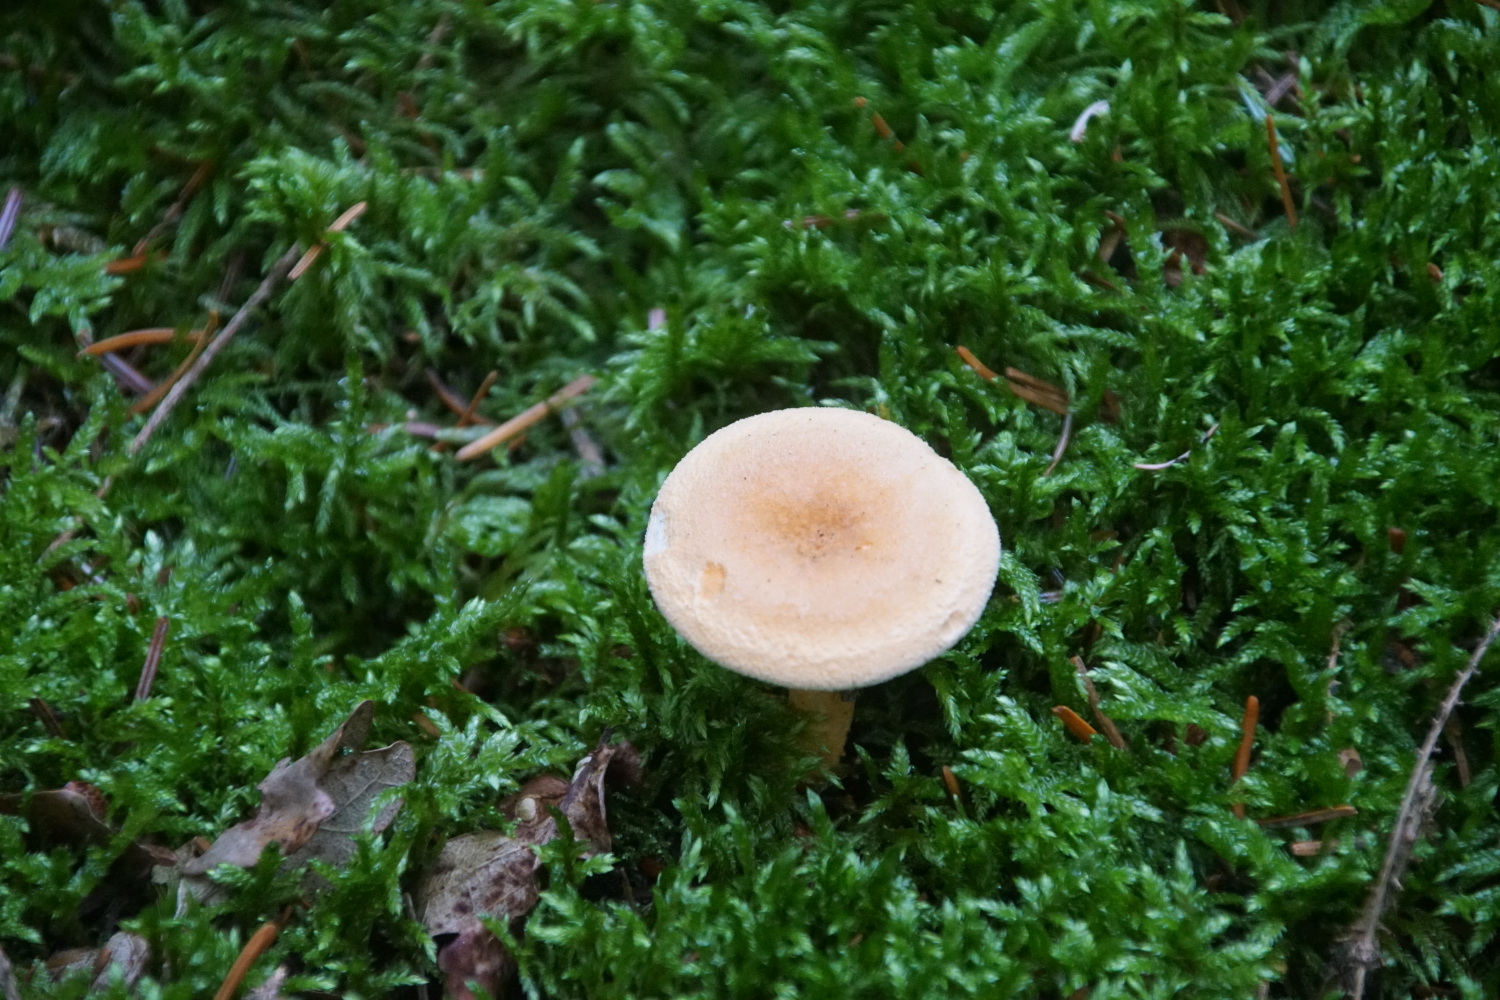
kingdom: Fungi
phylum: Basidiomycota
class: Agaricomycetes
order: Boletales
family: Hygrophoropsidaceae
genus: Hygrophoropsis
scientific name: Hygrophoropsis aurantiaca
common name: almindelig orangekantarel
